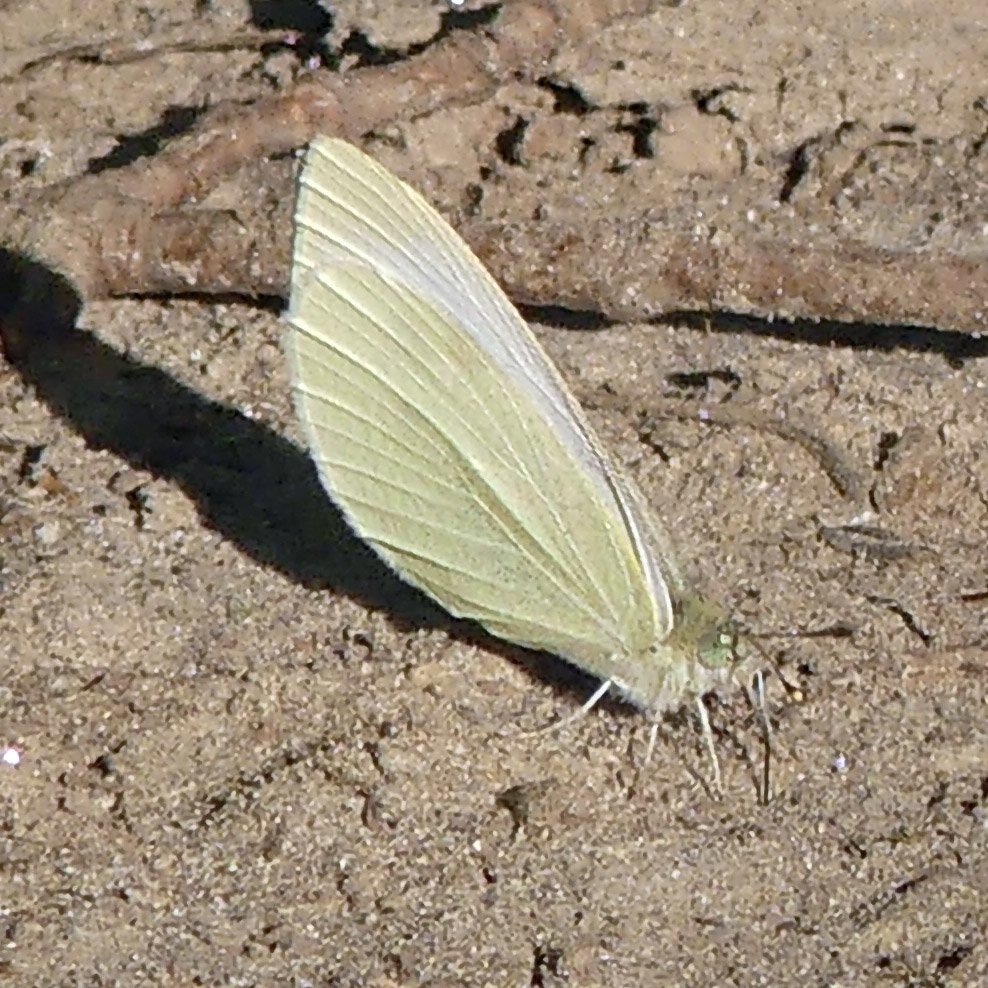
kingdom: Animalia
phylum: Arthropoda
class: Insecta
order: Lepidoptera
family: Pieridae
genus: Pieris
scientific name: Pieris rapae
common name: Cabbage White
